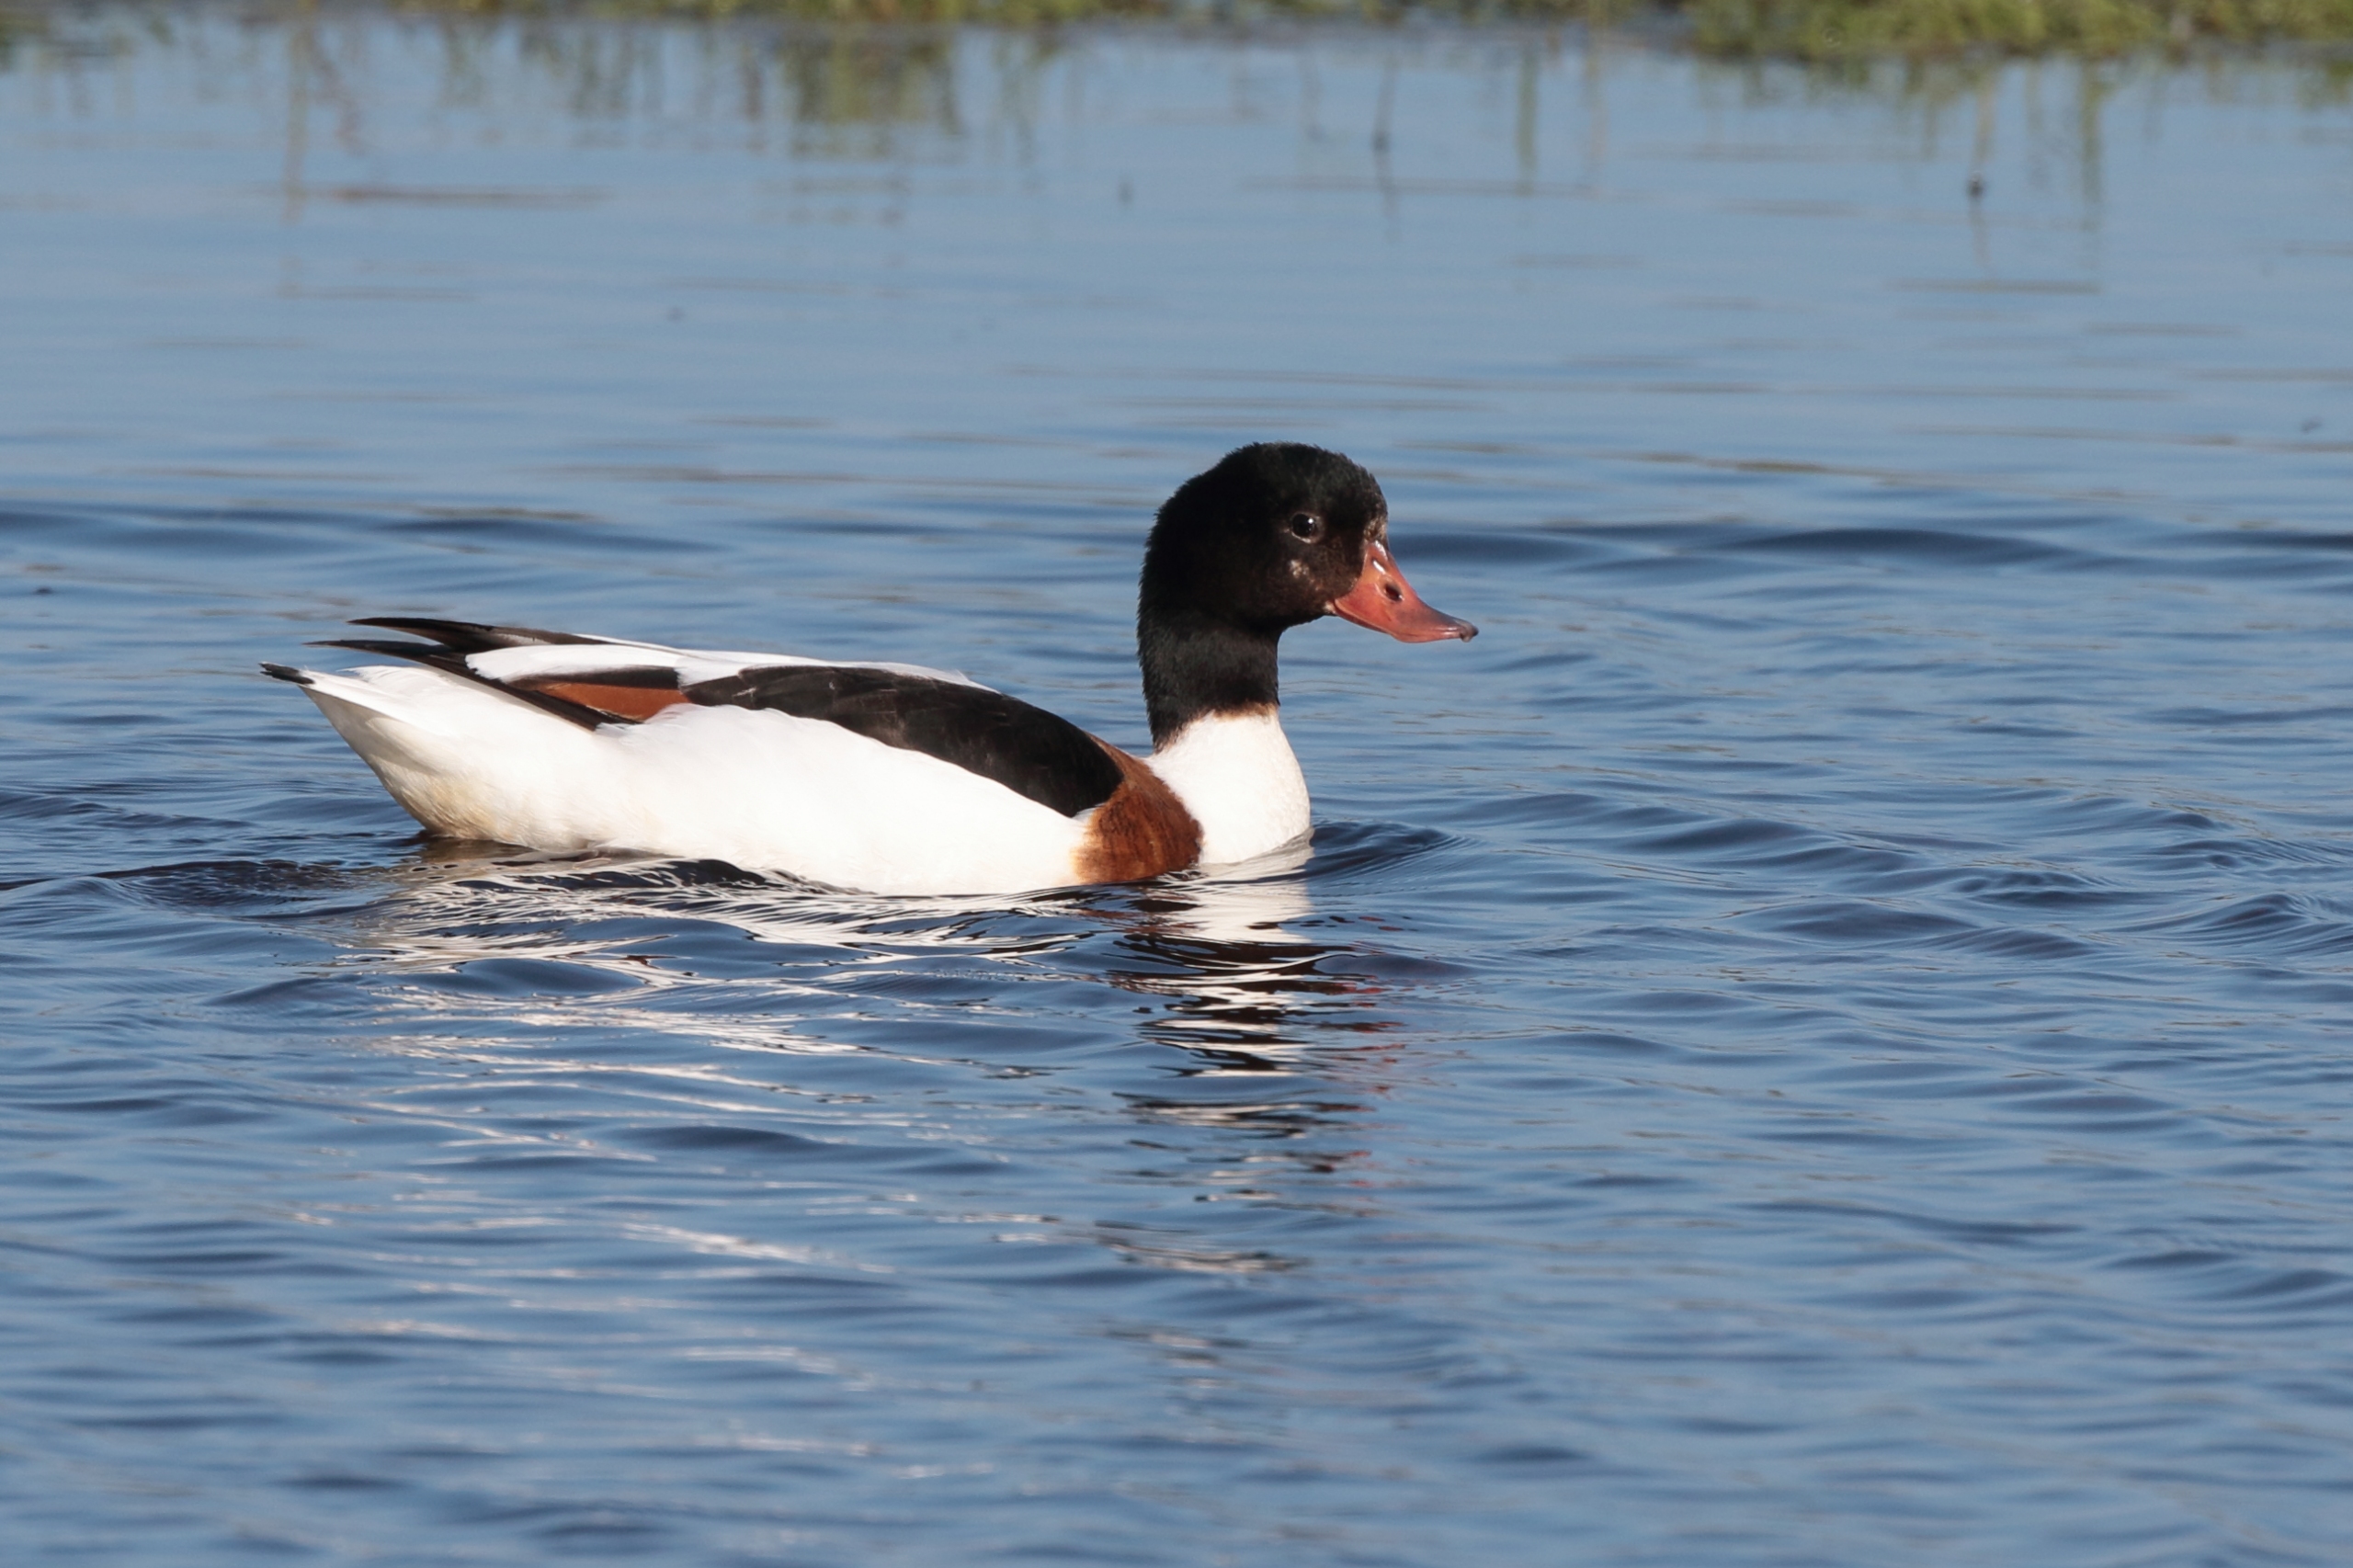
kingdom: Animalia
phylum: Chordata
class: Aves
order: Anseriformes
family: Anatidae
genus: Tadorna
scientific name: Tadorna tadorna
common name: Gravand
